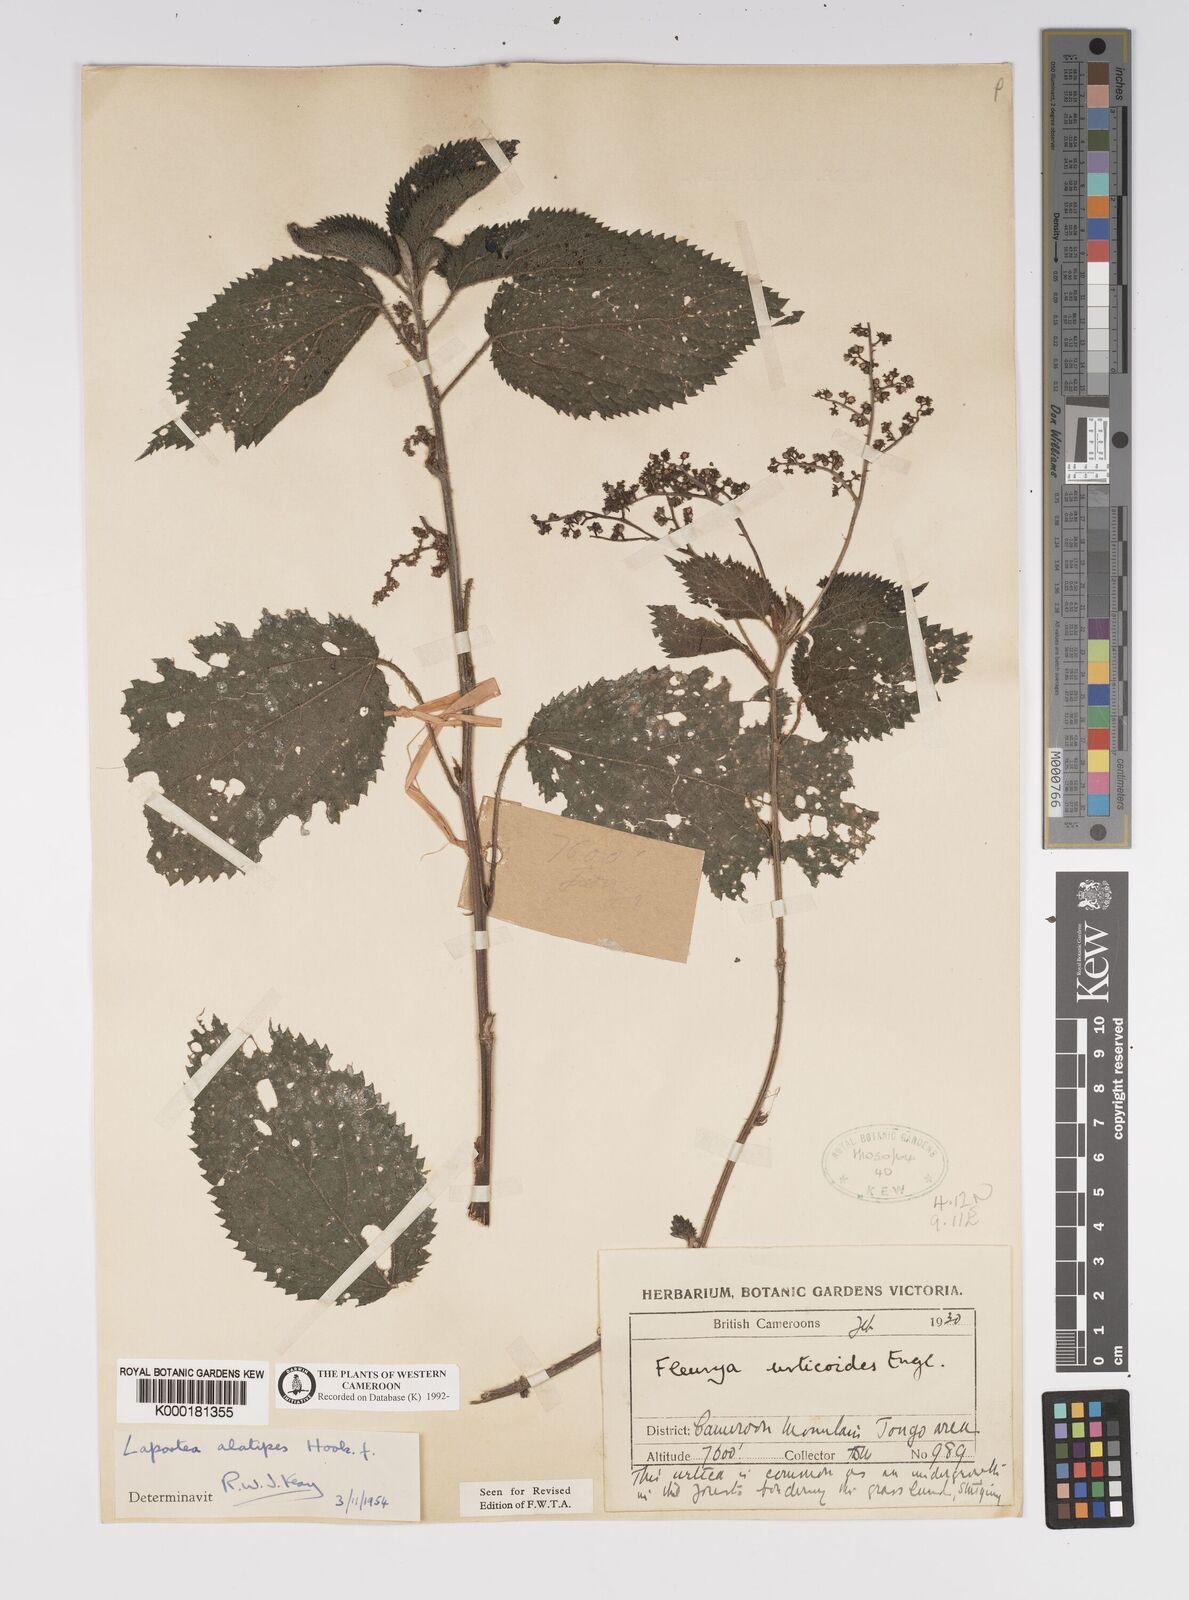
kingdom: Plantae
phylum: Tracheophyta
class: Magnoliopsida
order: Rosales
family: Urticaceae
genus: Laportea
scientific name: Laportea alatipes
